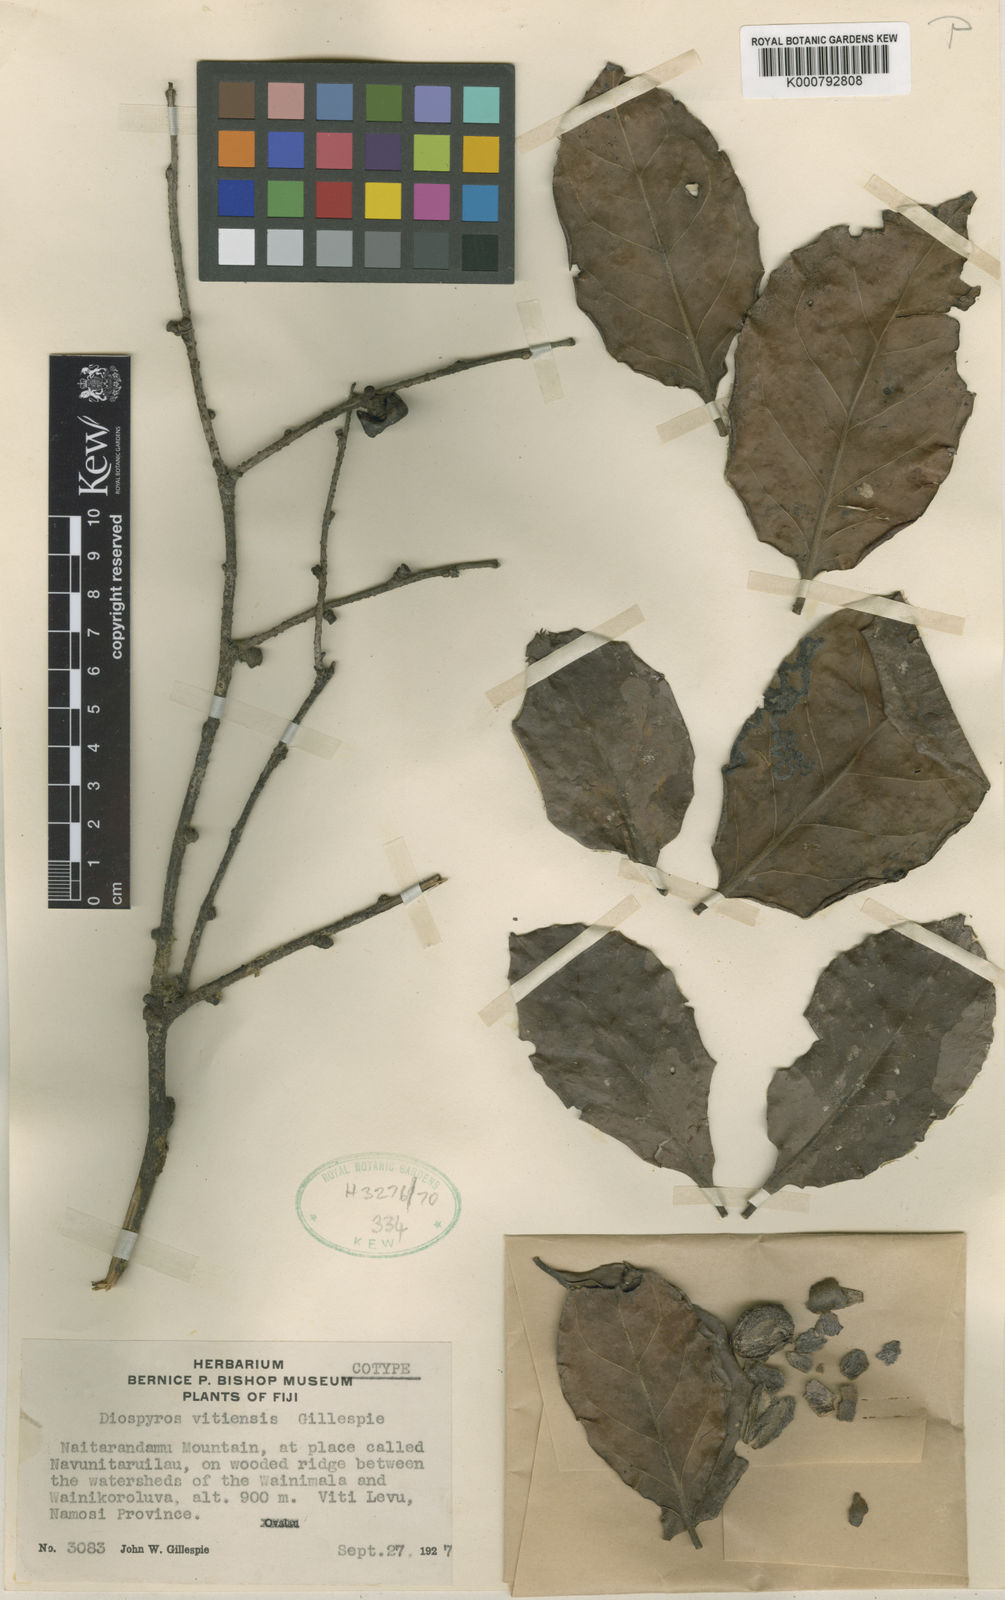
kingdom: Plantae
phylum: Tracheophyta
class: Magnoliopsida
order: Ericales
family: Ebenaceae
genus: Diospyros
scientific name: Diospyros vitiensis
